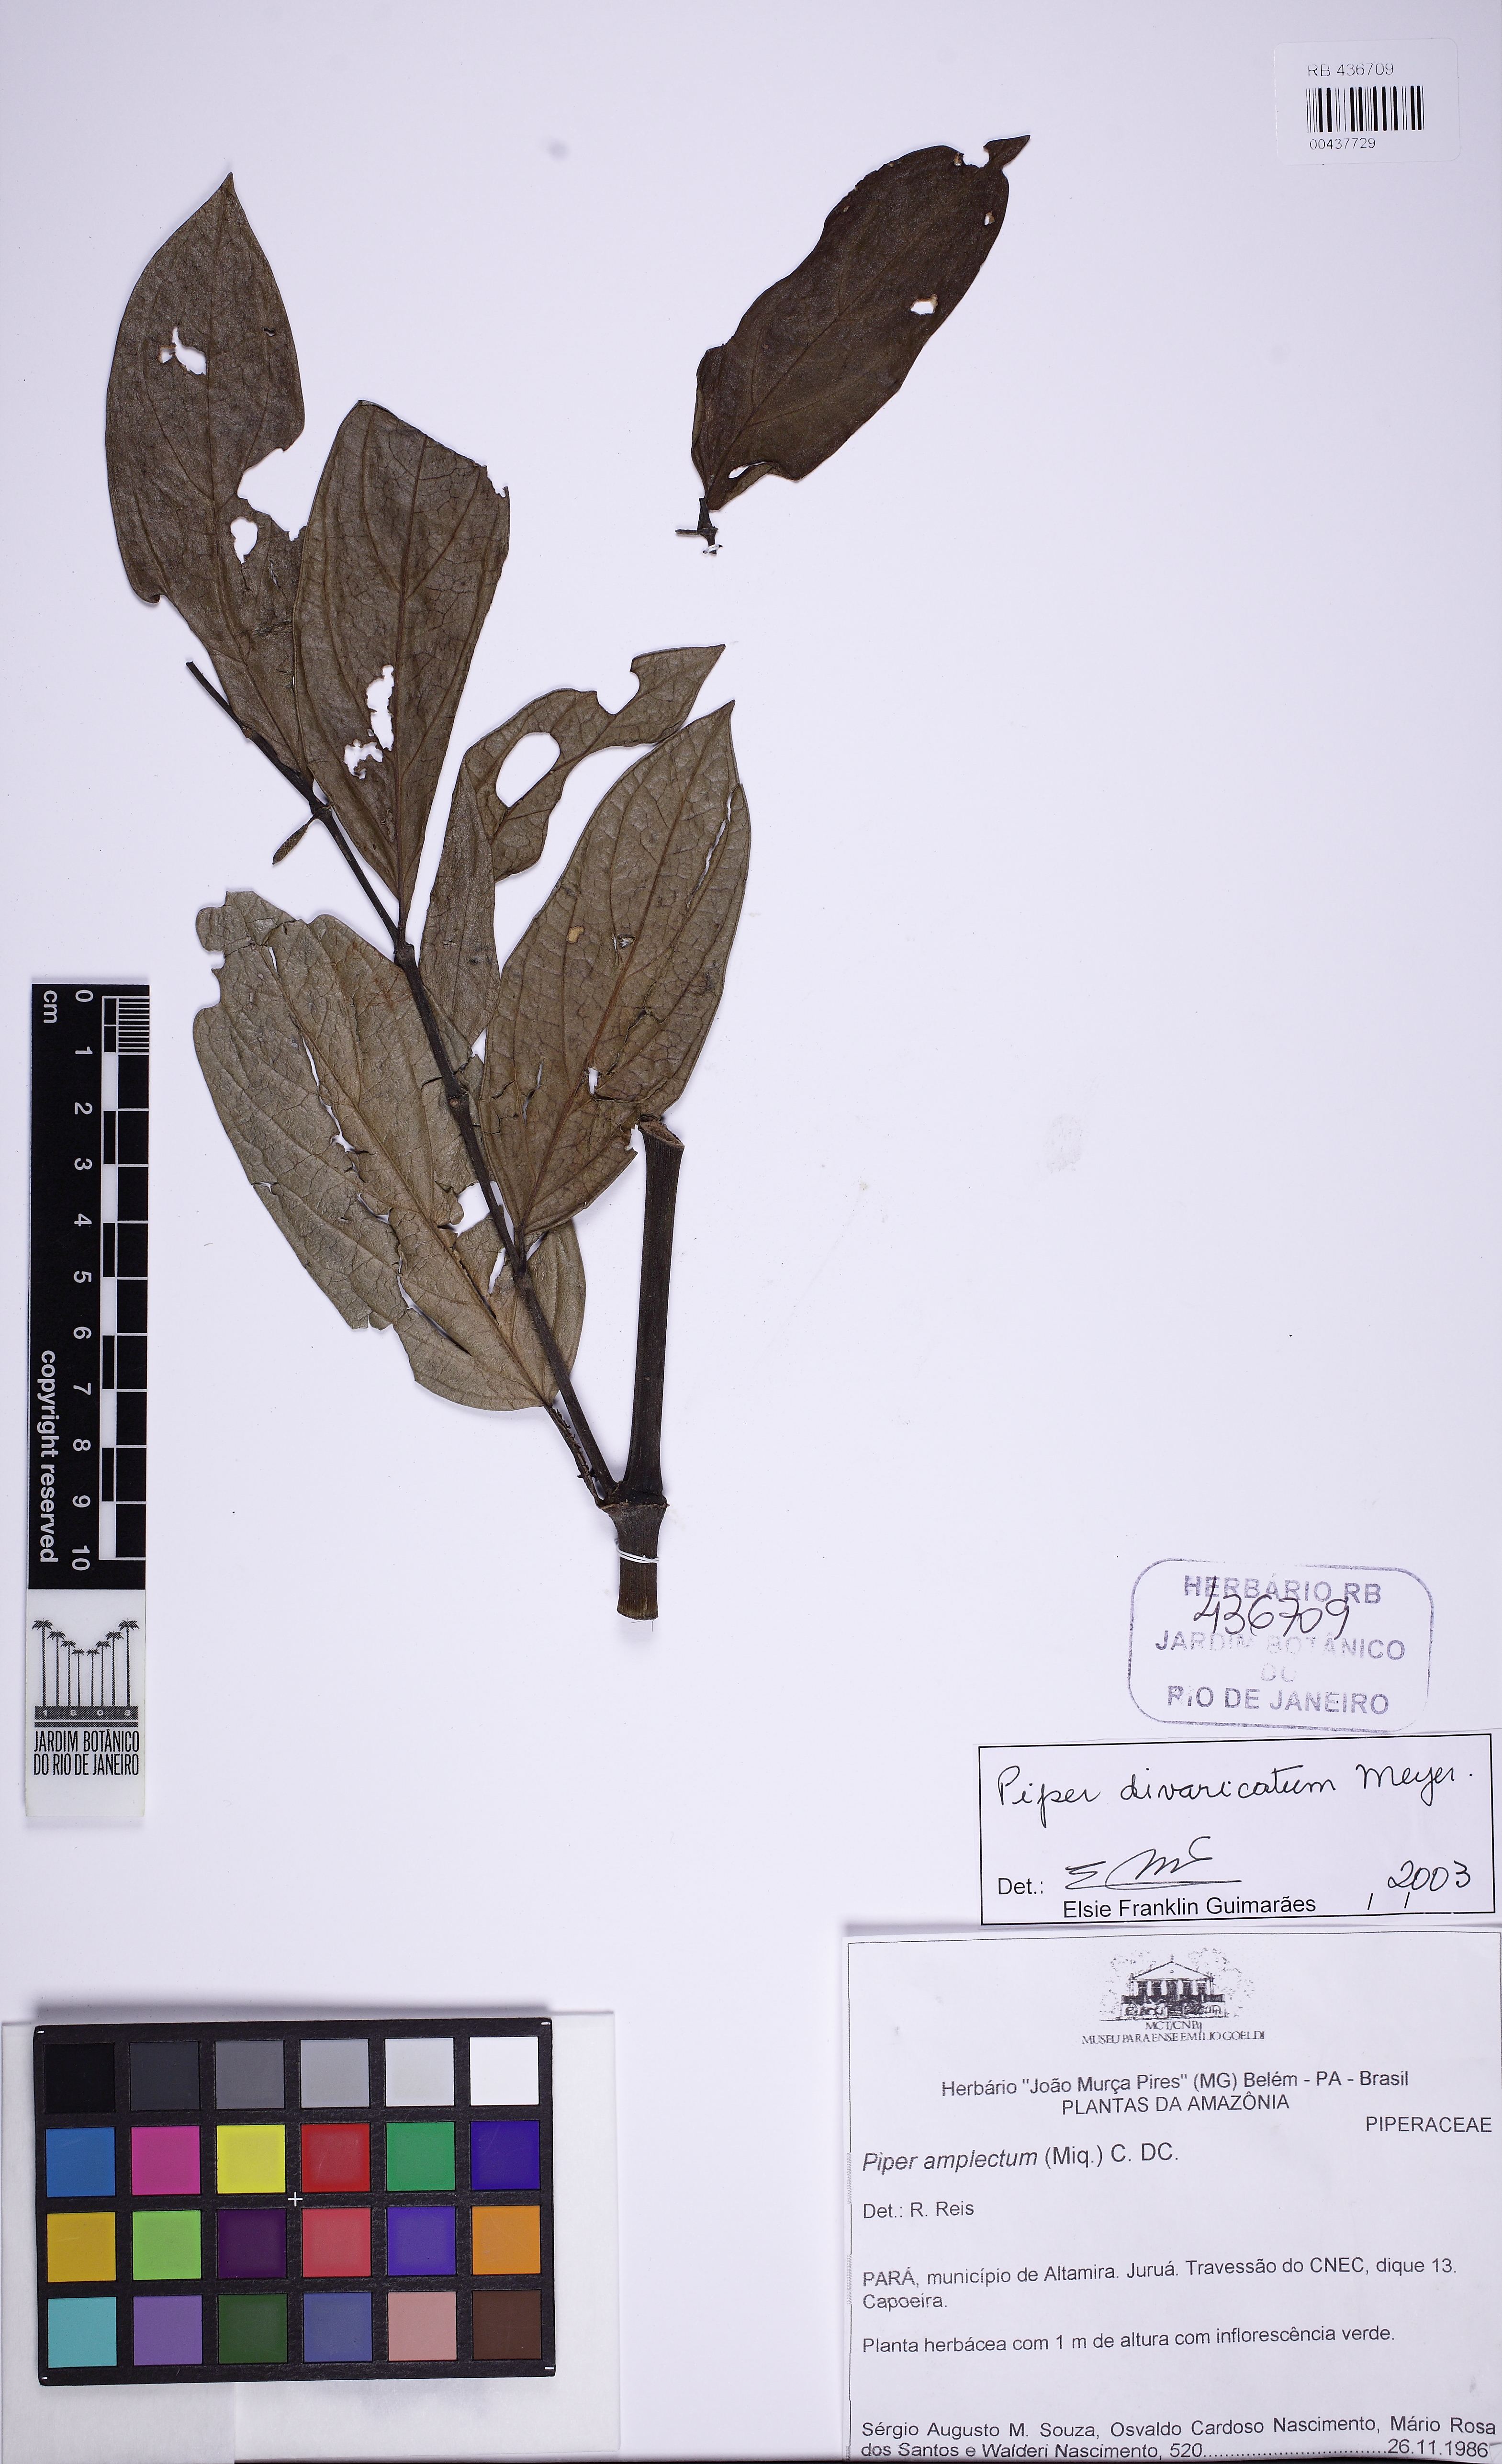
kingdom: Plantae
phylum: Tracheophyta
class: Magnoliopsida
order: Piperales
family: Piperaceae
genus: Piper
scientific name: Piper divaricatum
